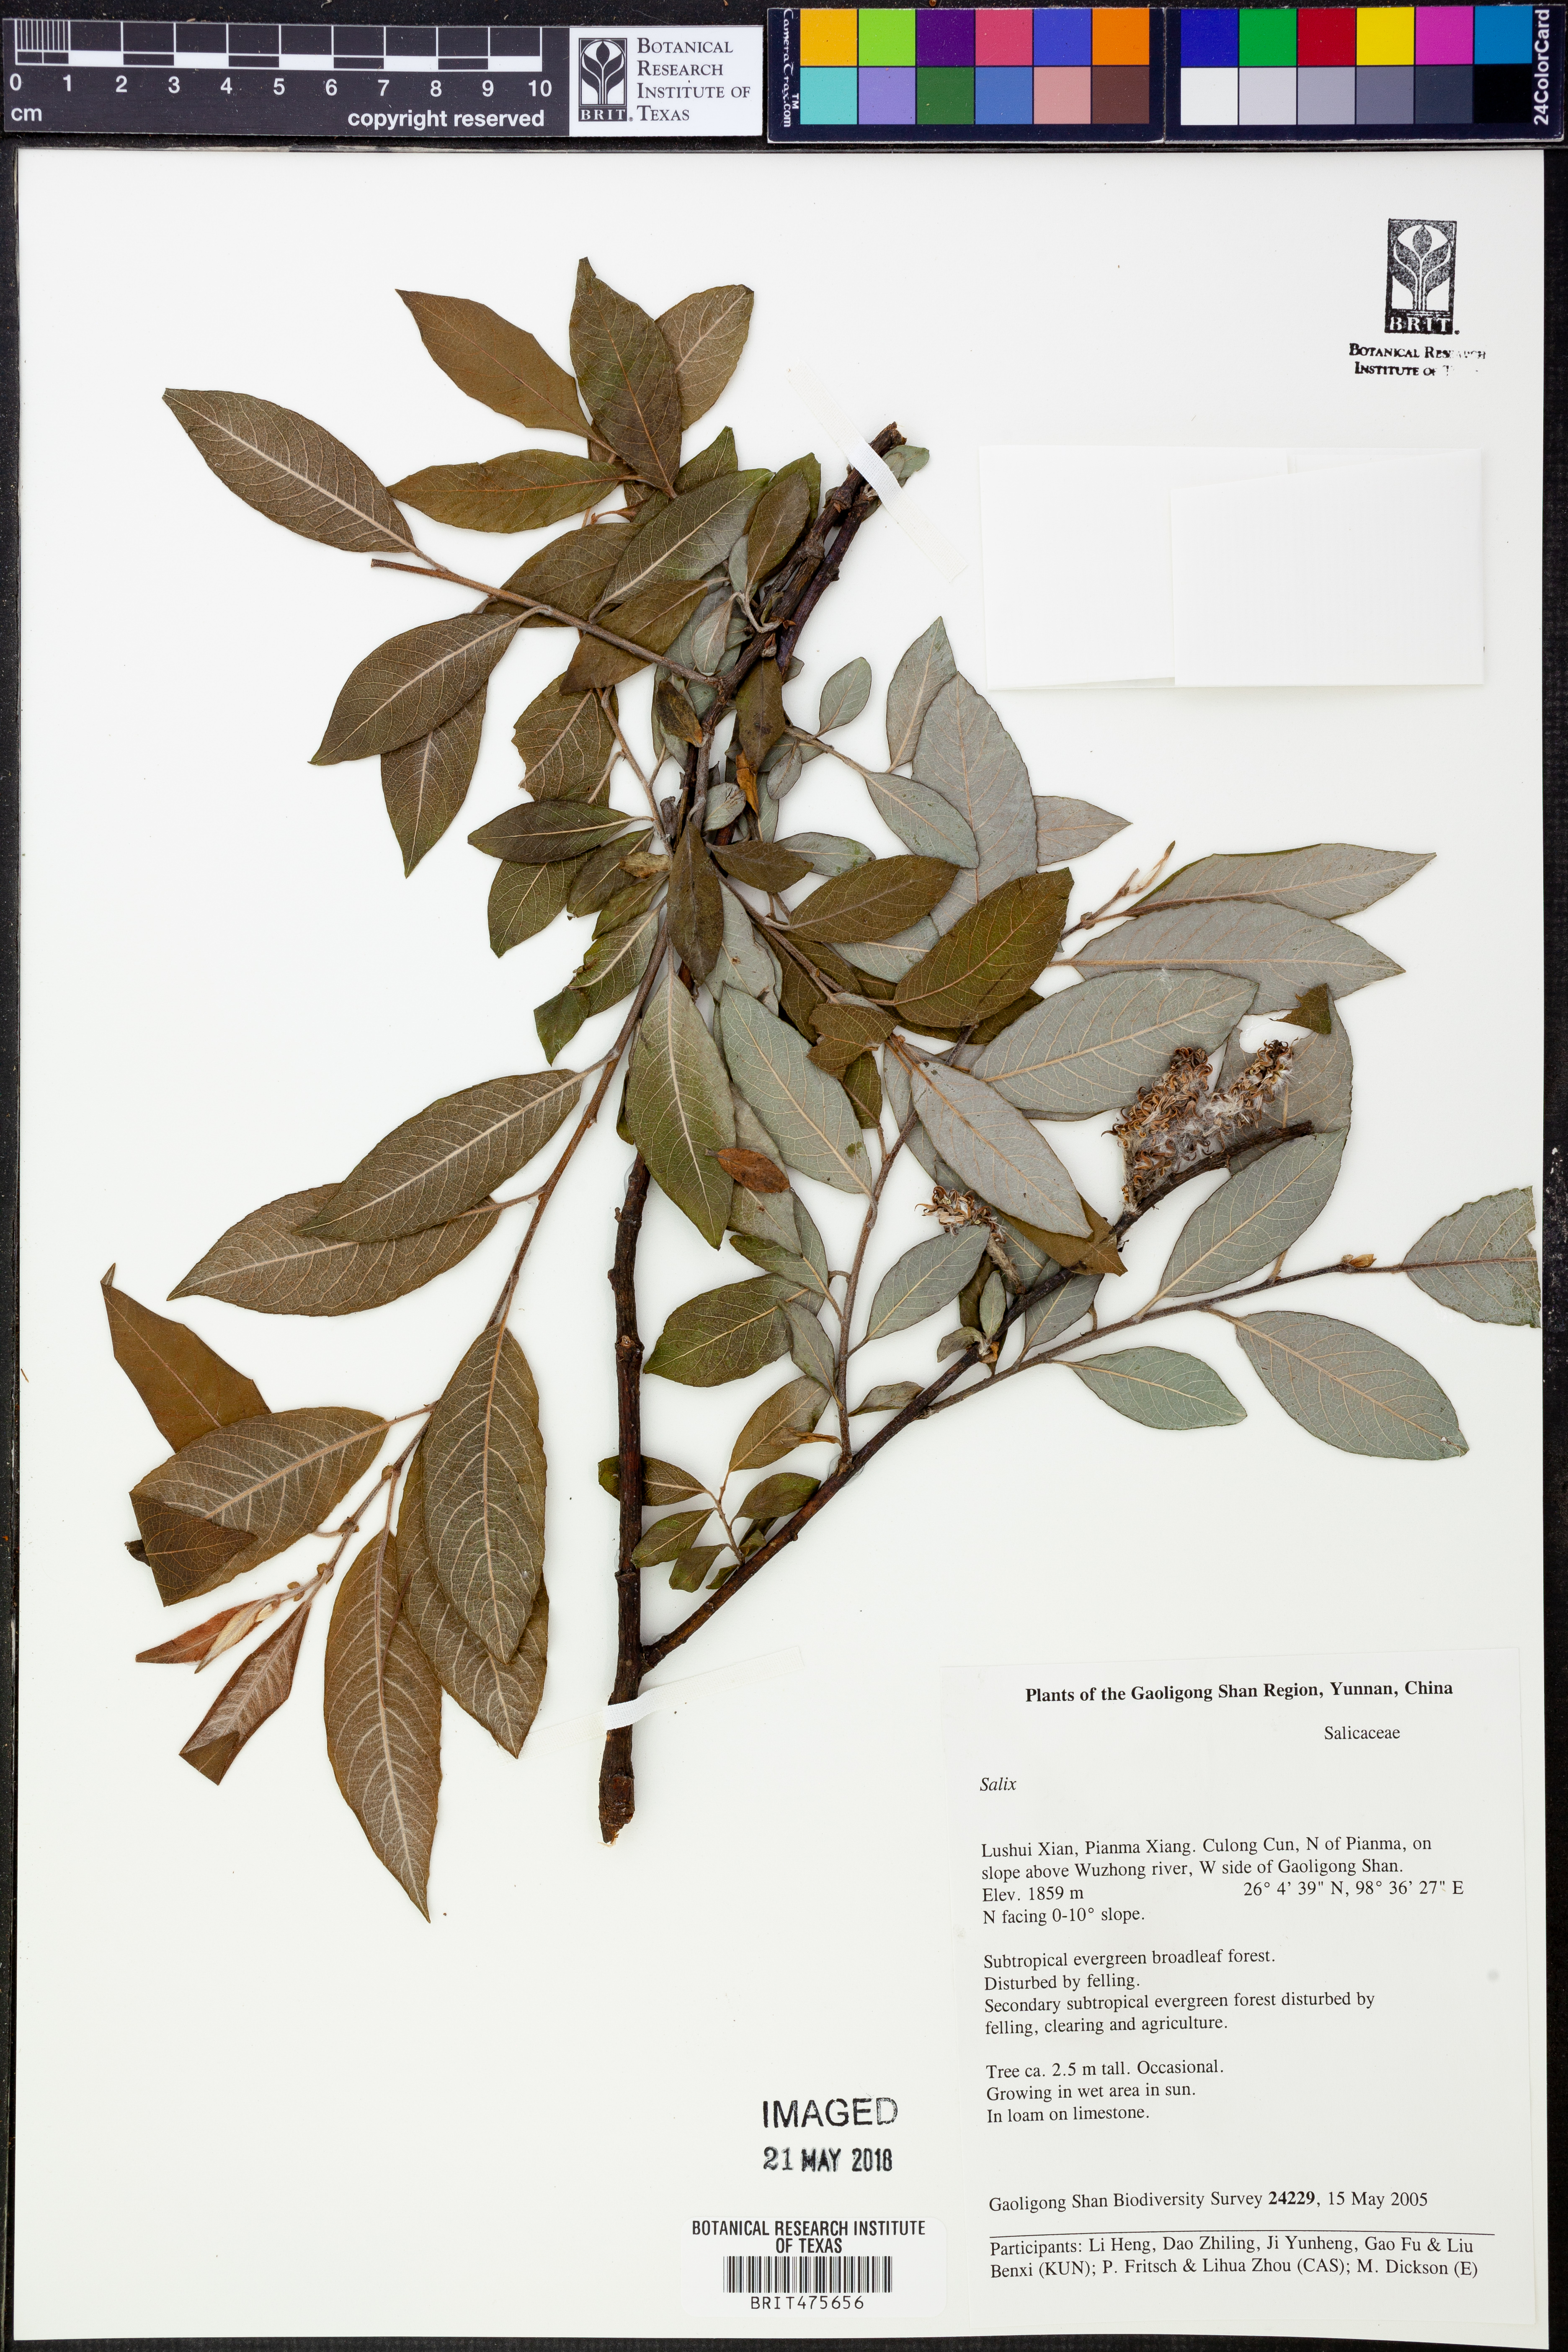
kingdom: Plantae
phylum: Tracheophyta
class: Magnoliopsida
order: Malpighiales
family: Salicaceae
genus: Salix
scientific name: Salix
